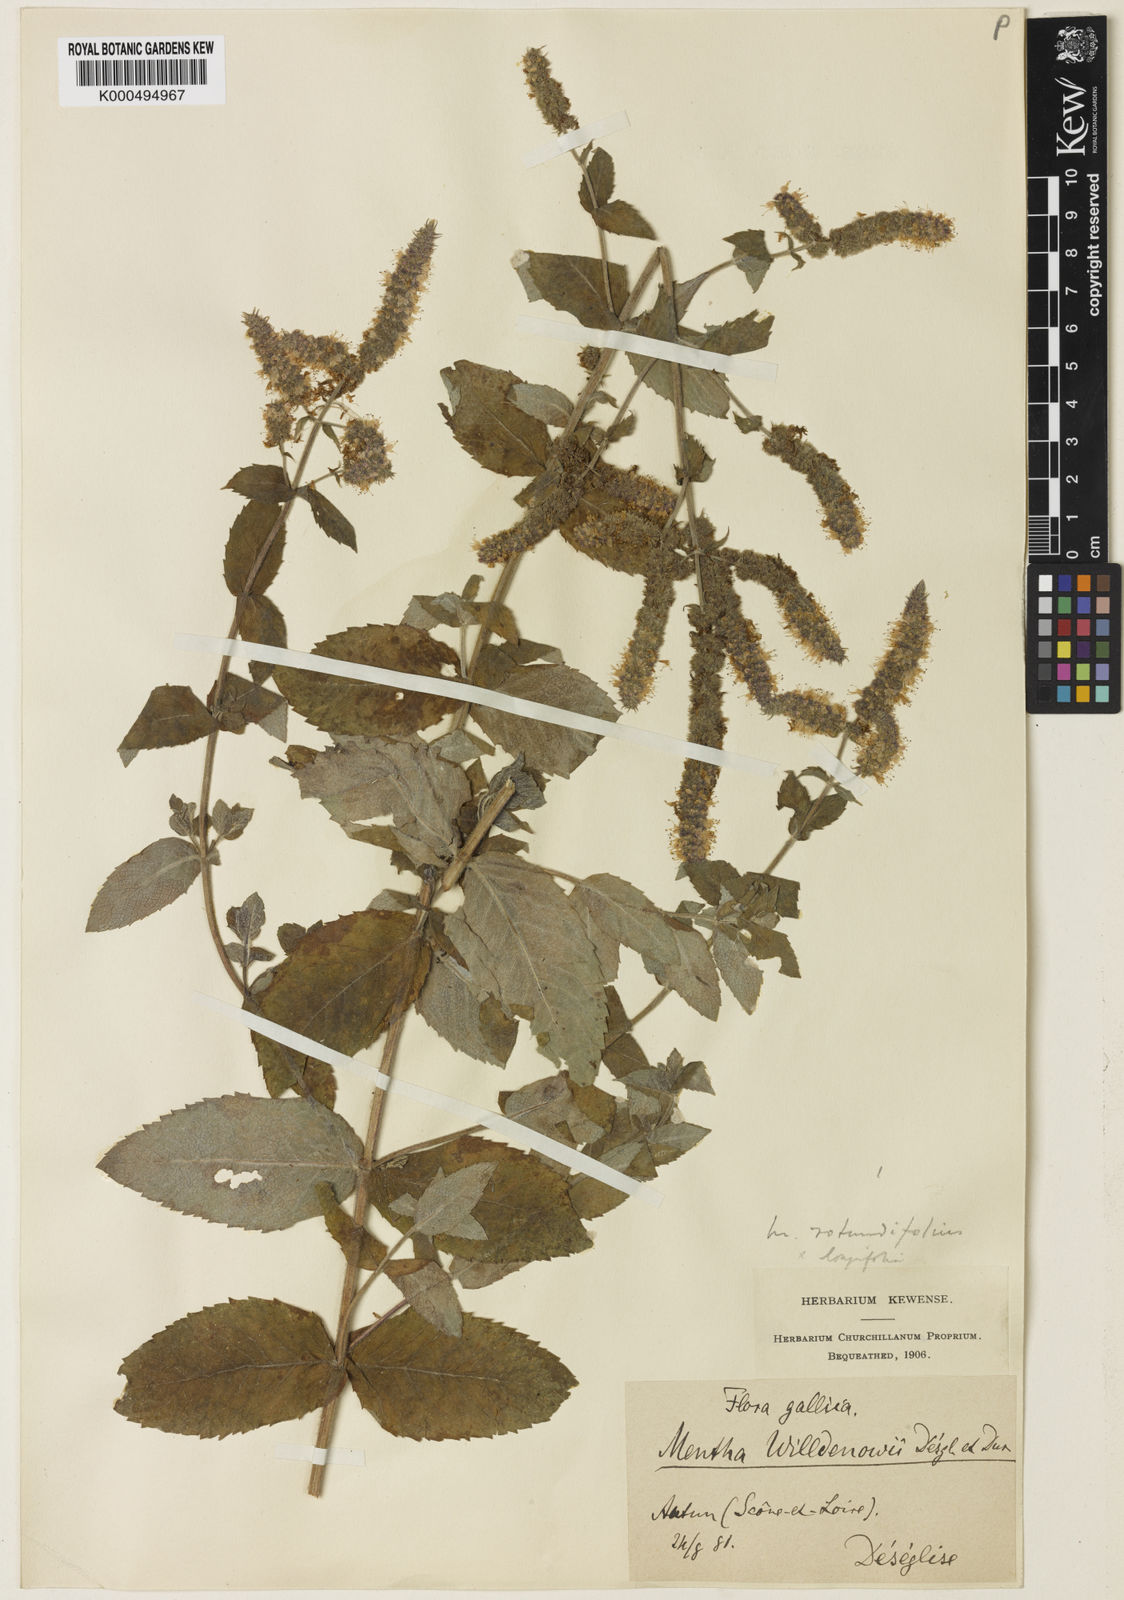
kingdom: Plantae
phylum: Tracheophyta
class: Magnoliopsida
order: Lamiales
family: Lamiaceae
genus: Mentha
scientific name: Mentha villosa
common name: Apple mint
